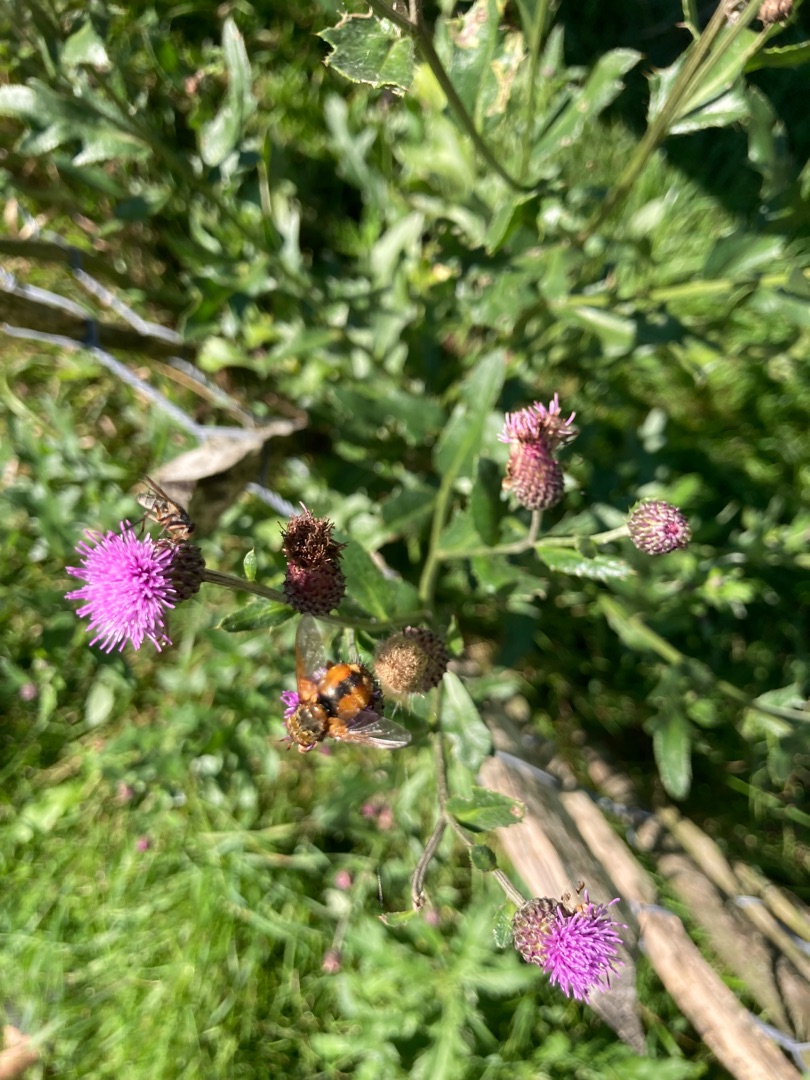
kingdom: Animalia
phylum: Arthropoda
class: Insecta
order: Diptera
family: Tachinidae
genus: Tachina
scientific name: Tachina fera
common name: Mellemfluen oskar
